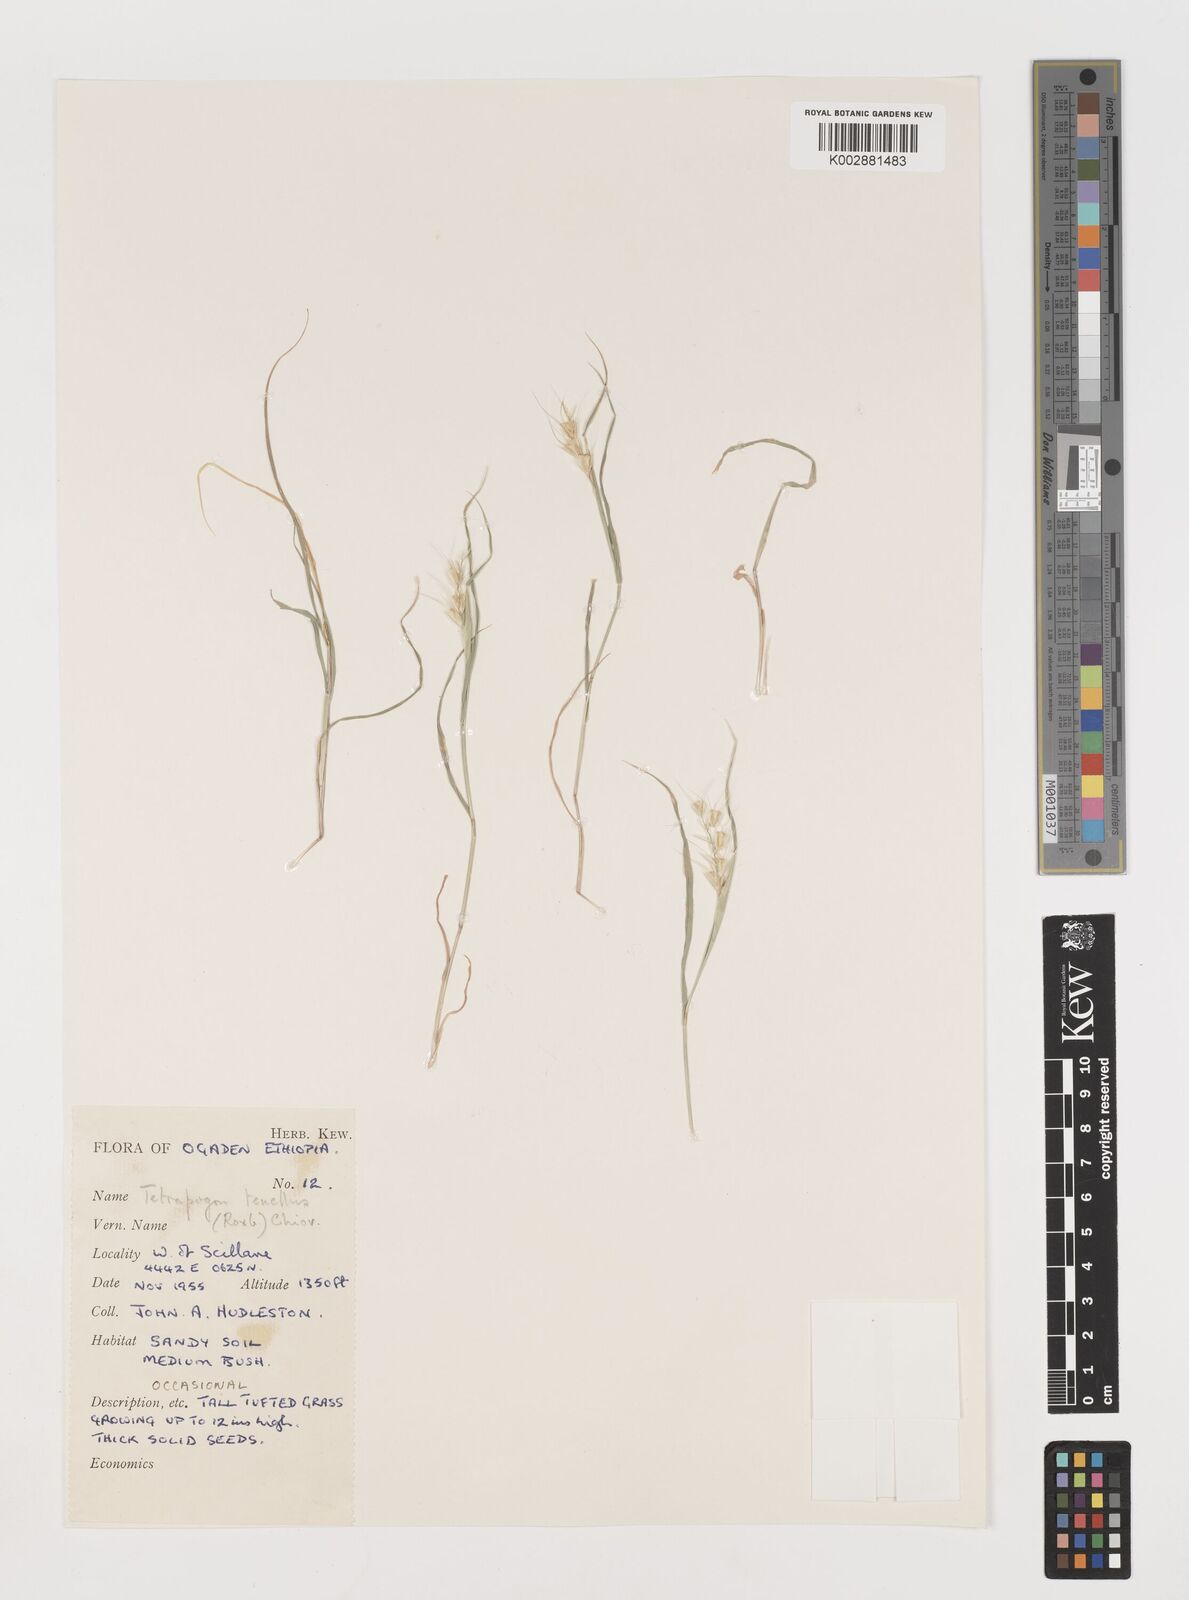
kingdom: Plantae
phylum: Tracheophyta
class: Liliopsida
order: Poales
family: Poaceae
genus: Tetrapogon
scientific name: Tetrapogon tenellus
